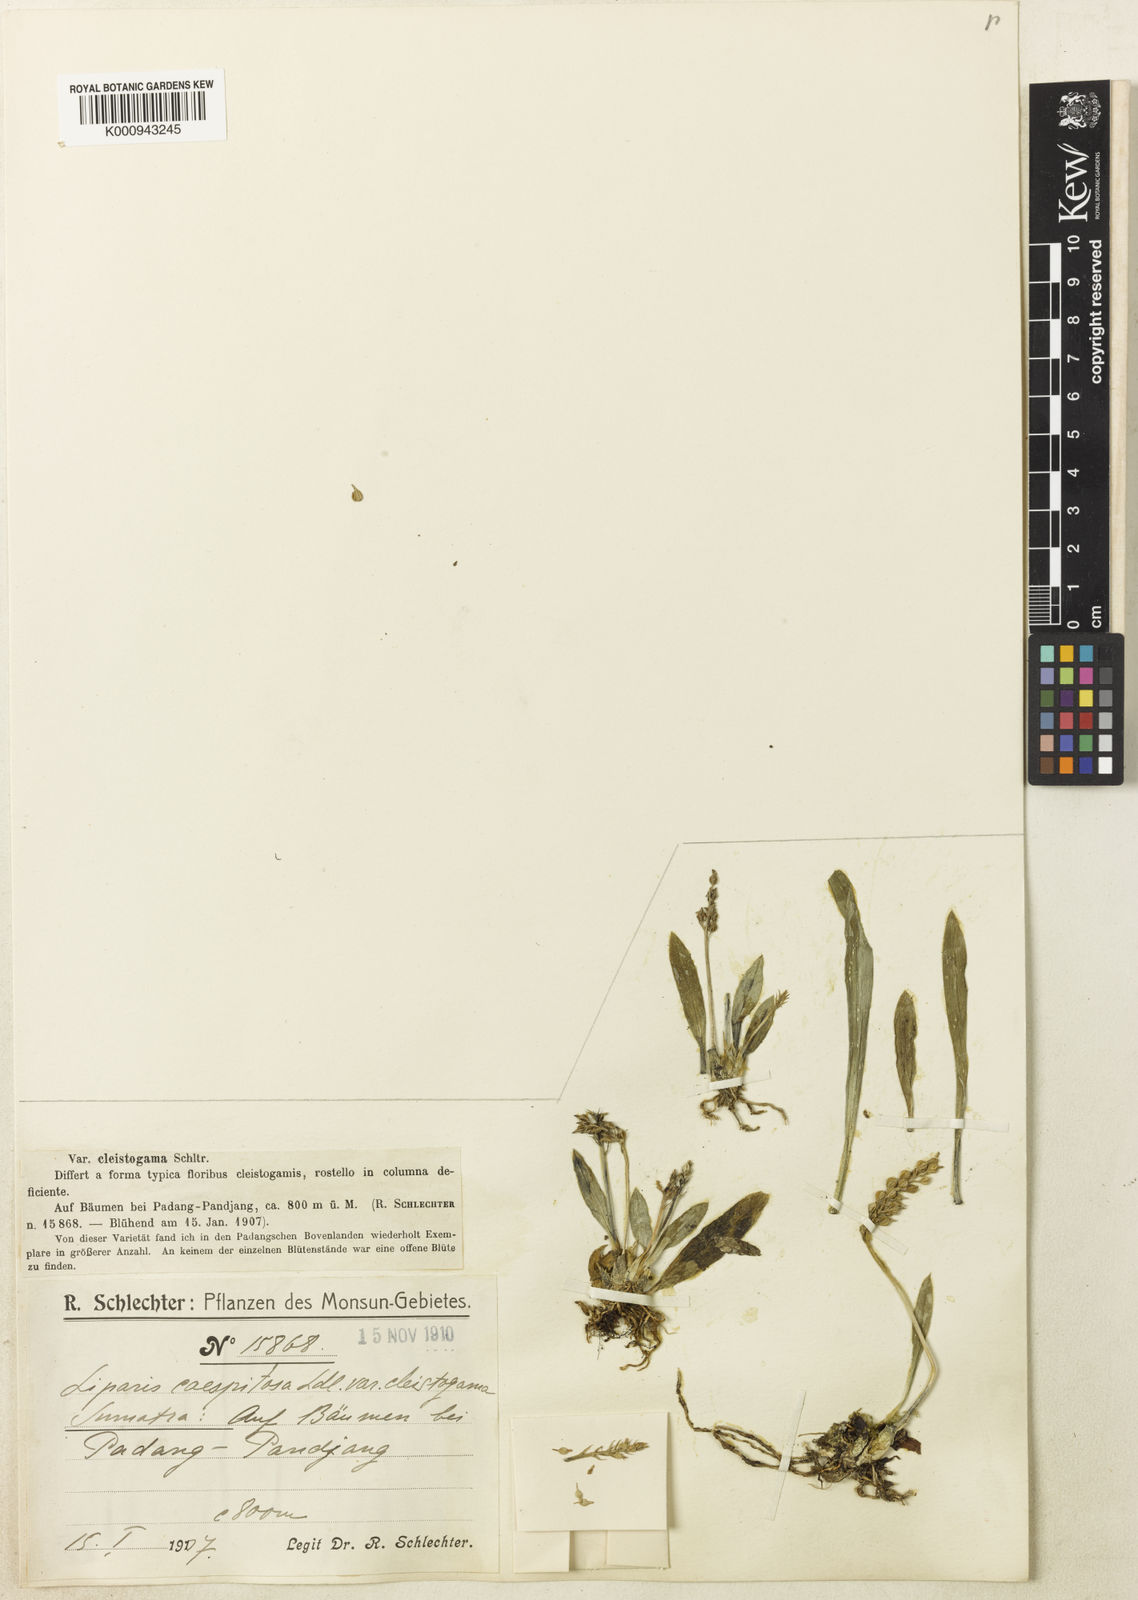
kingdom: Plantae
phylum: Tracheophyta
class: Liliopsida
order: Asparagales
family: Orchidaceae
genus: Liparis
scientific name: Liparis
